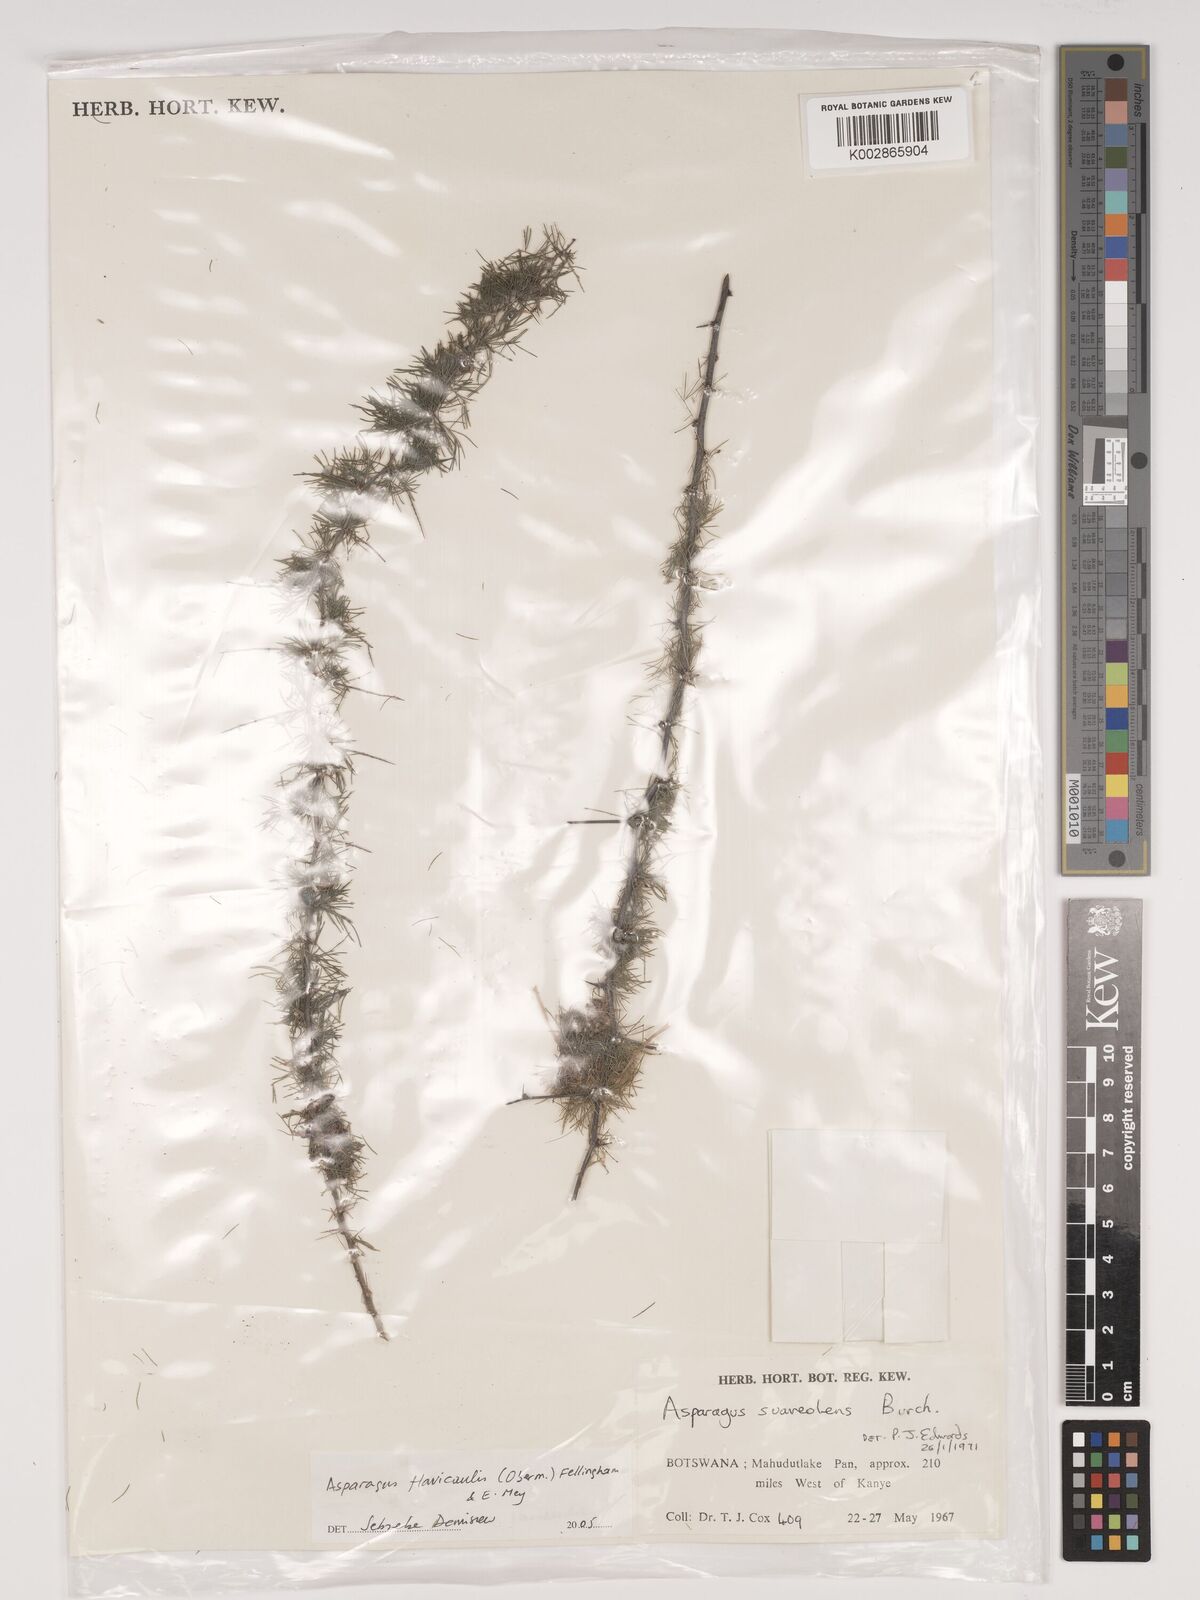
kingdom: Plantae
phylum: Tracheophyta
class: Liliopsida
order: Asparagales
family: Asparagaceae
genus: Asparagus
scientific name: Asparagus flavicaulis
